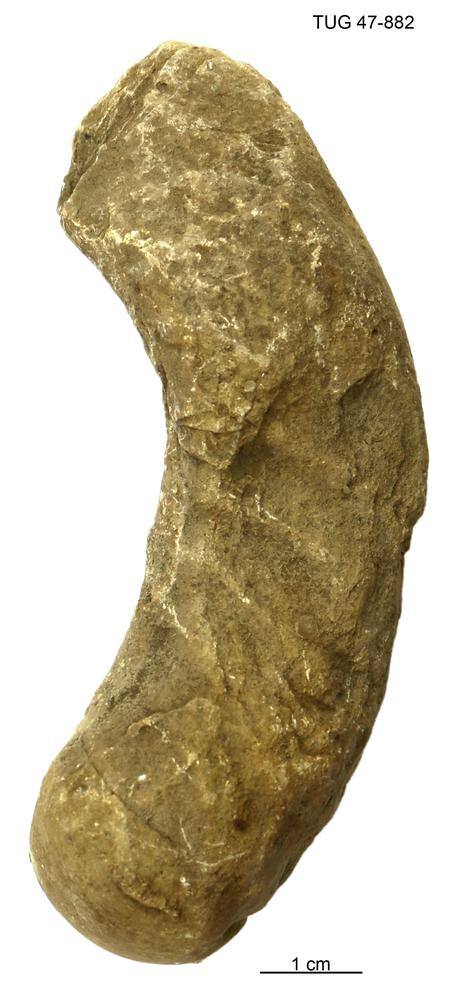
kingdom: Animalia
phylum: Mollusca
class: Cephalopoda
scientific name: Cephalopoda
